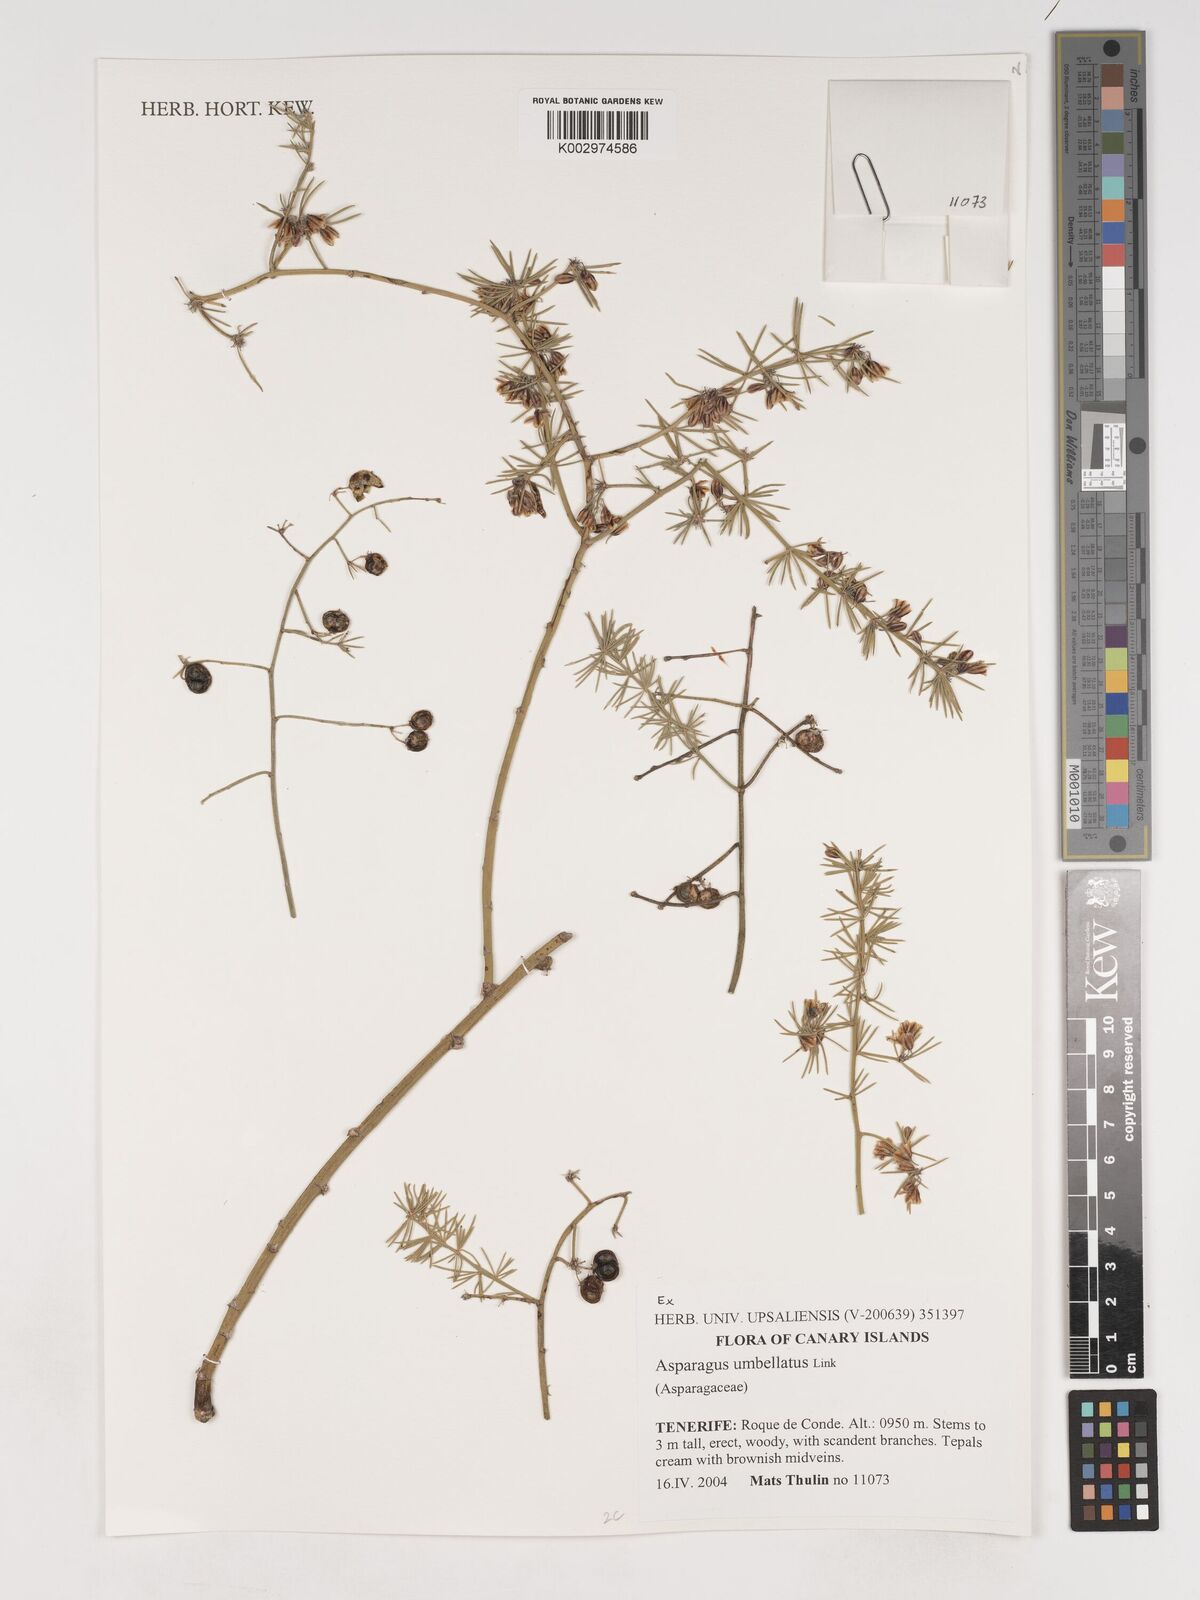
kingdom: Plantae
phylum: Tracheophyta
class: Liliopsida
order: Asparagales
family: Asparagaceae
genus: Asparagus
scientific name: Asparagus umbellatus
